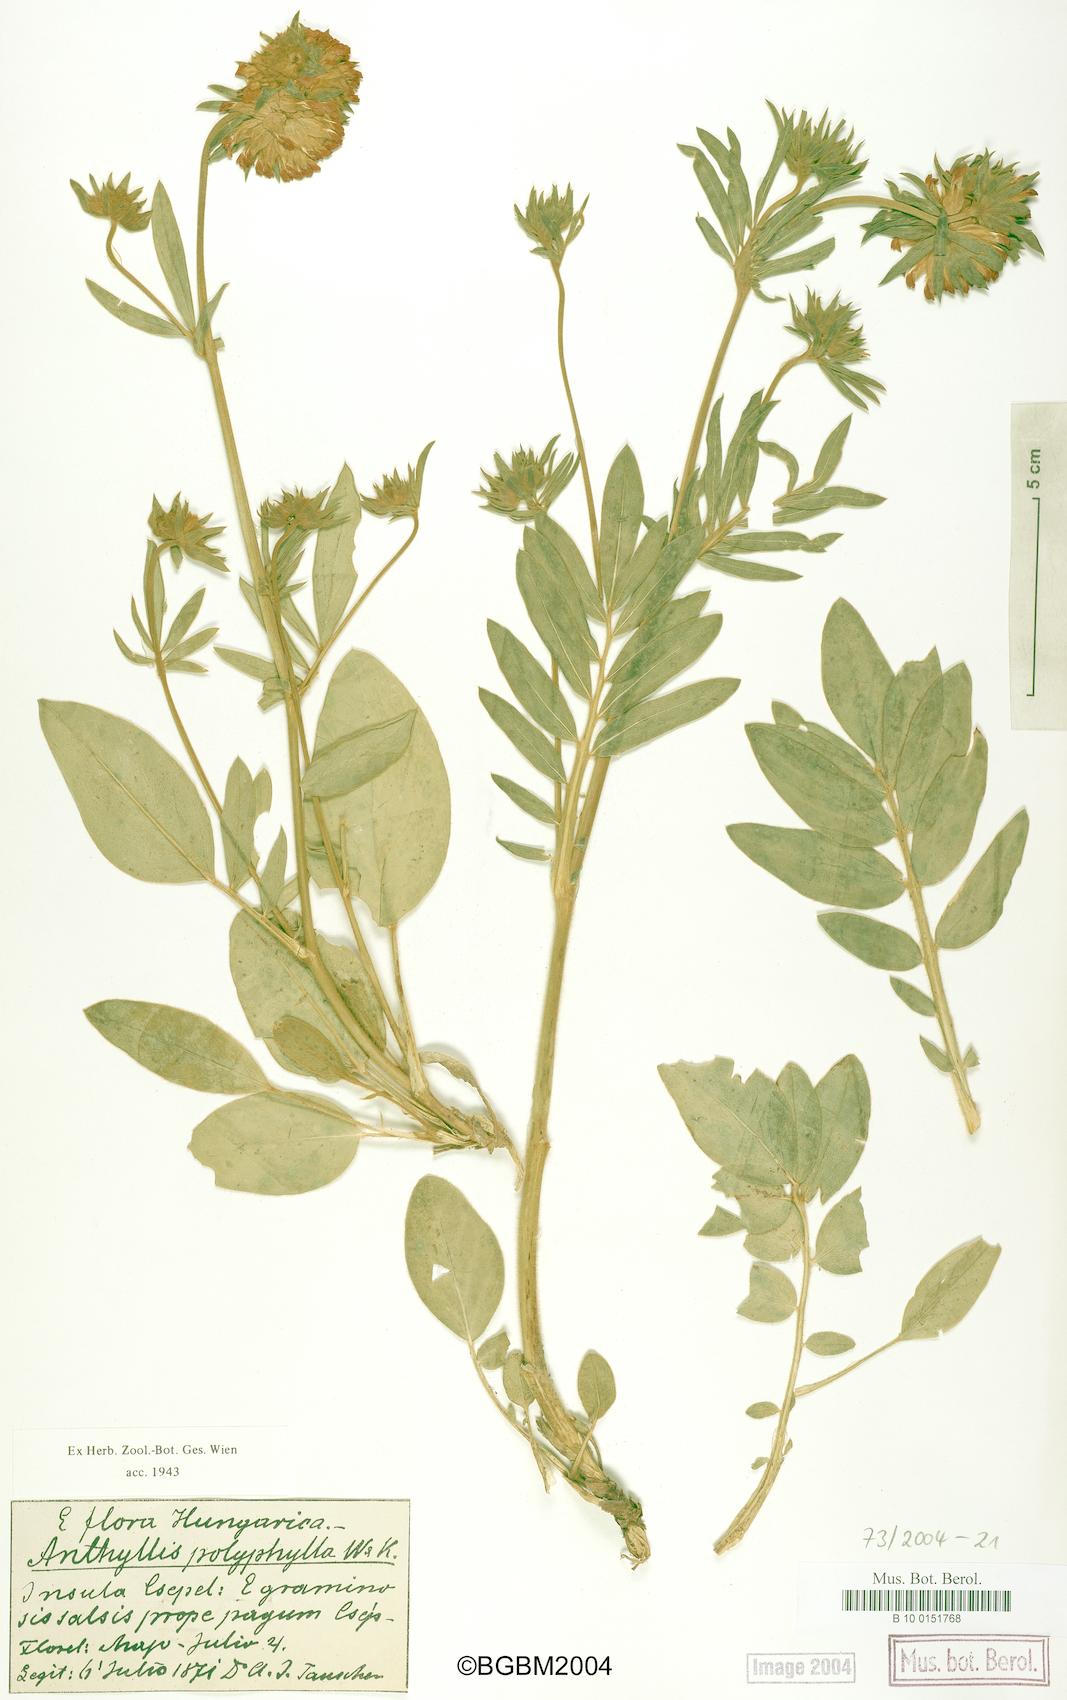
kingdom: Plantae
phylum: Tracheophyta
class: Magnoliopsida
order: Fabales
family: Fabaceae
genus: Anthyllis
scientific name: Anthyllis vulneraria
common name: Kidney vetch
